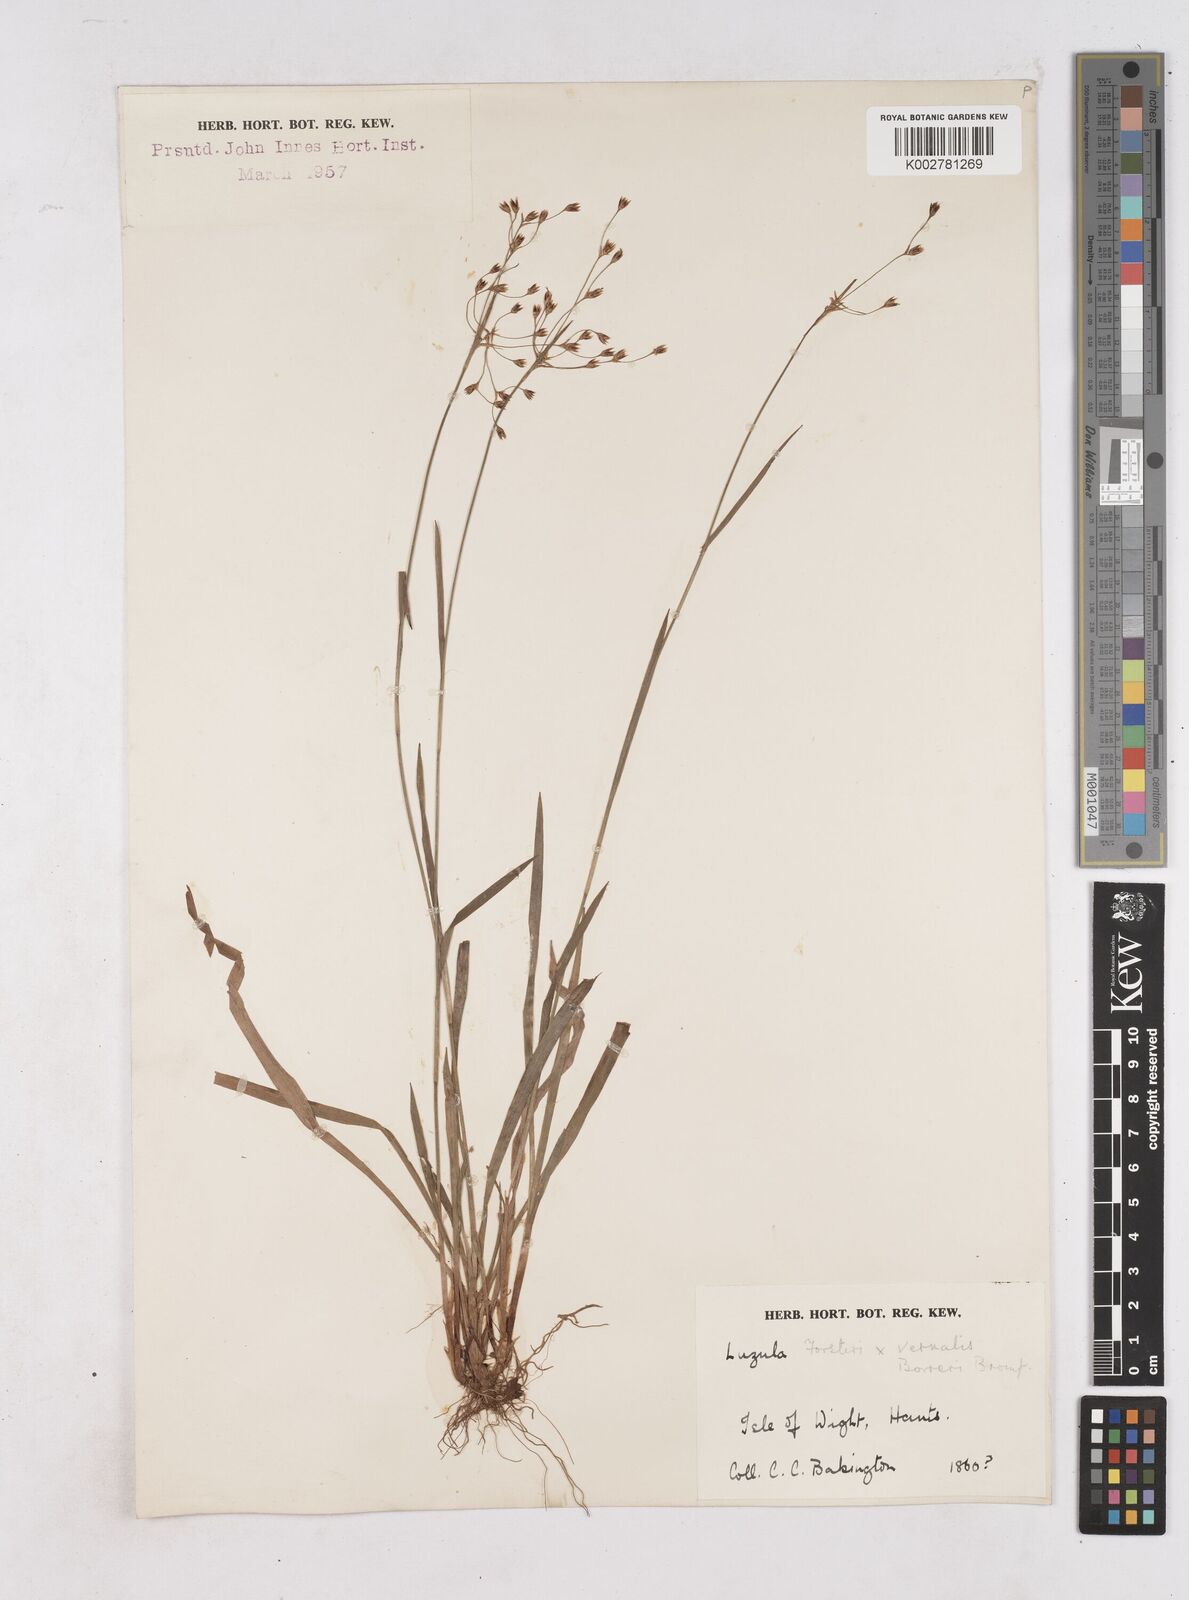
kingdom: Plantae
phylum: Tracheophyta
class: Liliopsida
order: Poales
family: Juncaceae
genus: Luzula
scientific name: Luzula borreri
